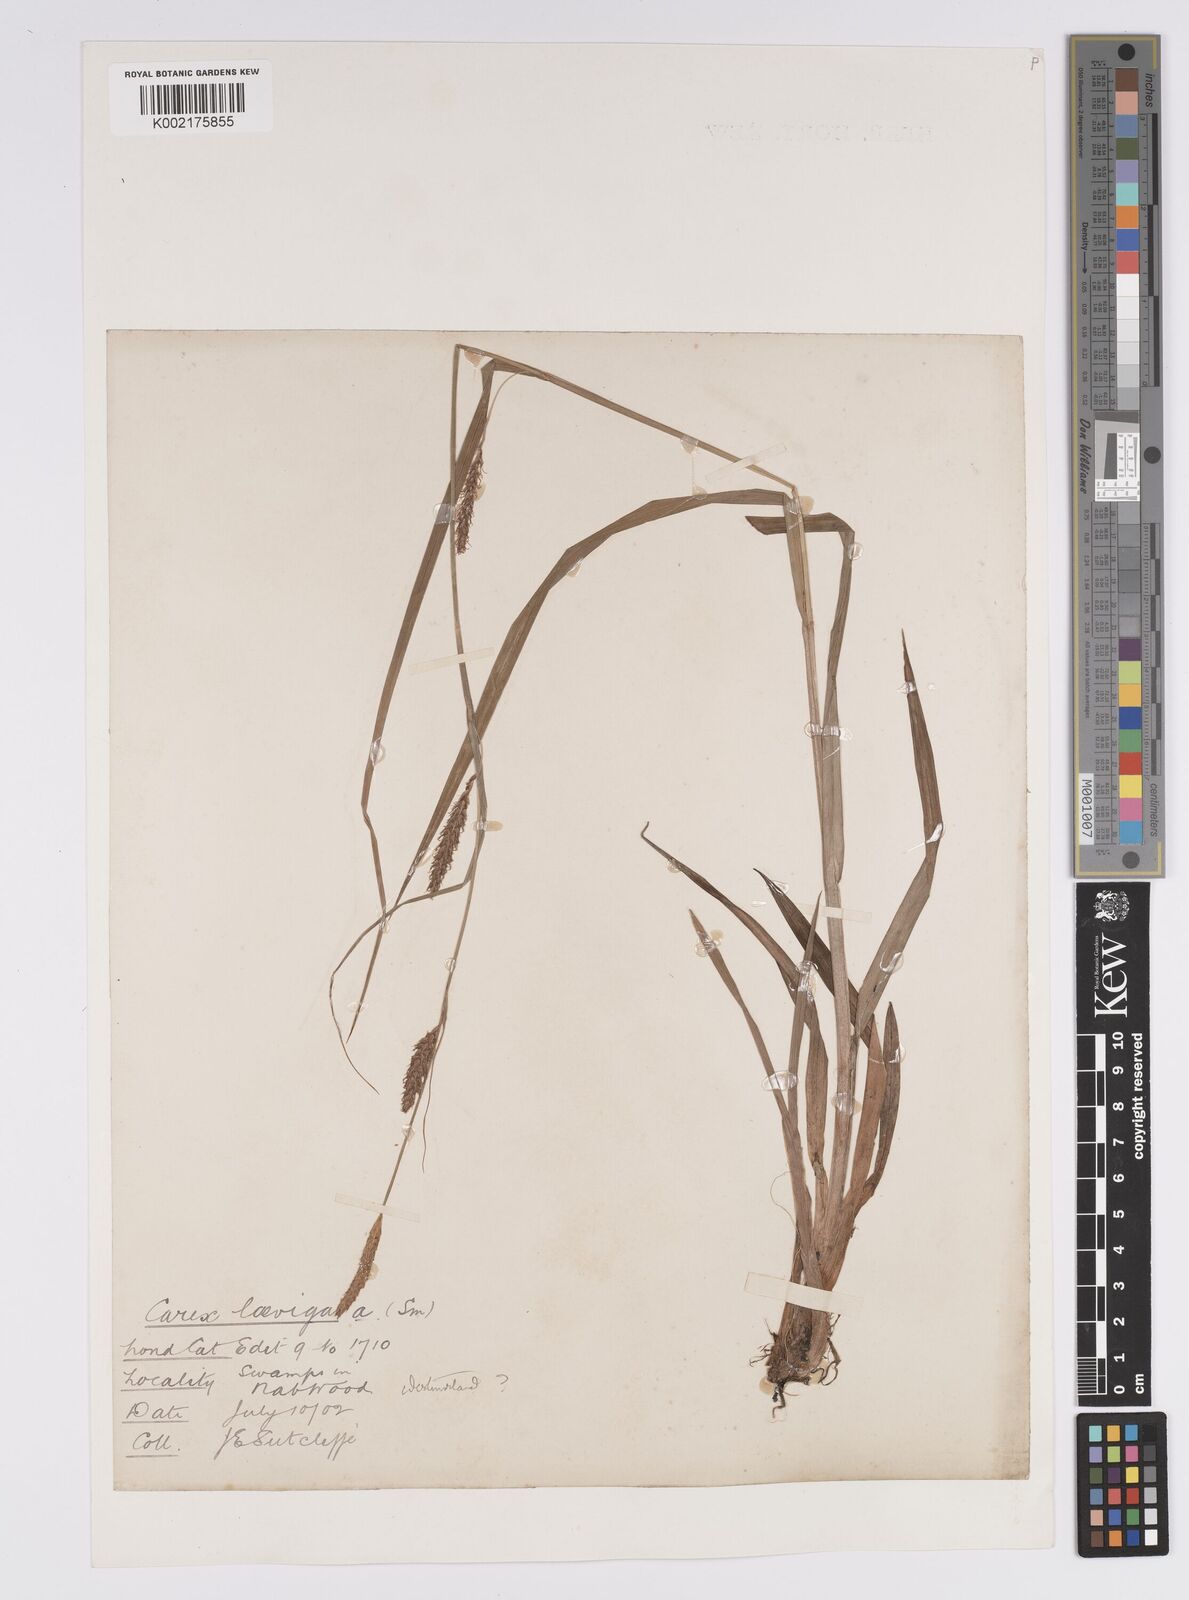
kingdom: Plantae
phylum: Tracheophyta
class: Liliopsida
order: Poales
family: Cyperaceae
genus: Carex
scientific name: Carex laevigata
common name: Smooth-stalked sedge
